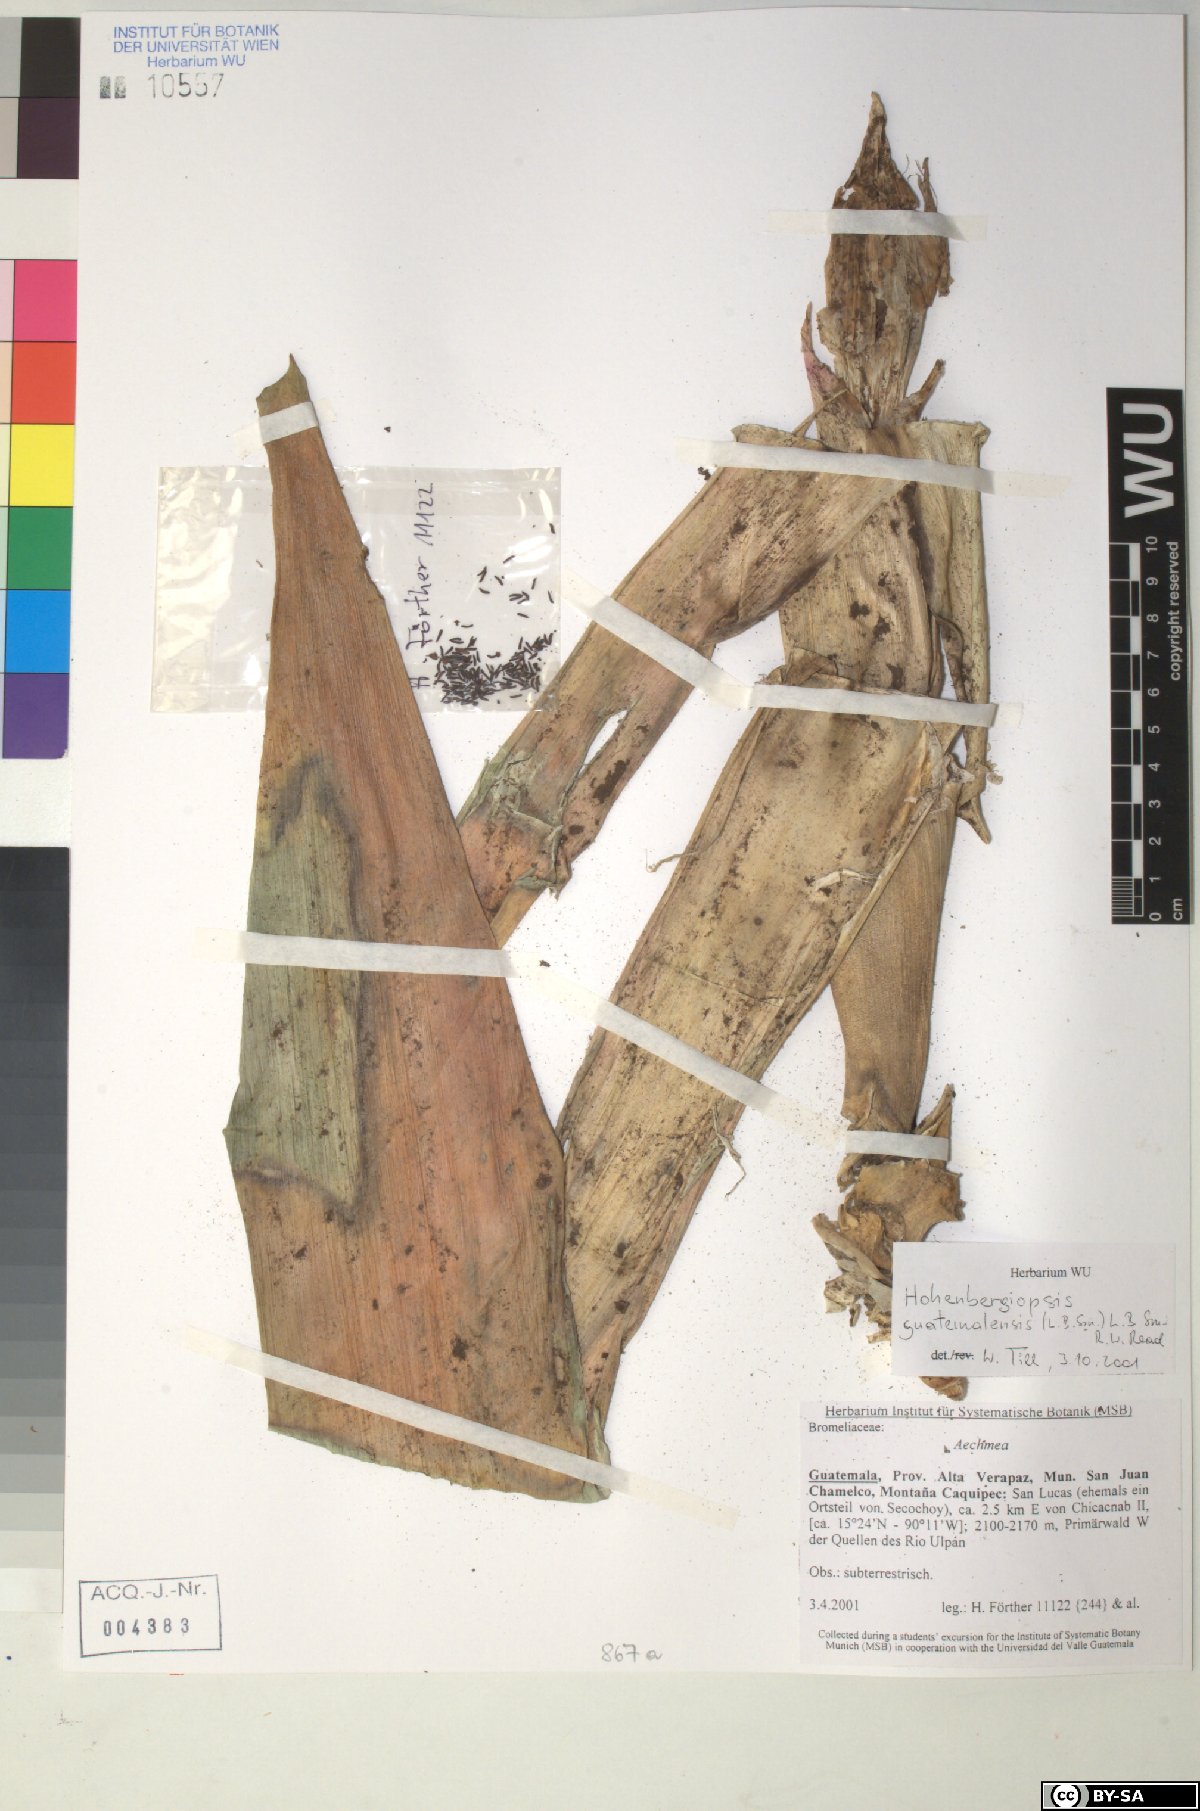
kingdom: Plantae
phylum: Tracheophyta
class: Liliopsida
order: Poales
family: Bromeliaceae
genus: Hohenbergiopsis
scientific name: Hohenbergiopsis guatemalensis
